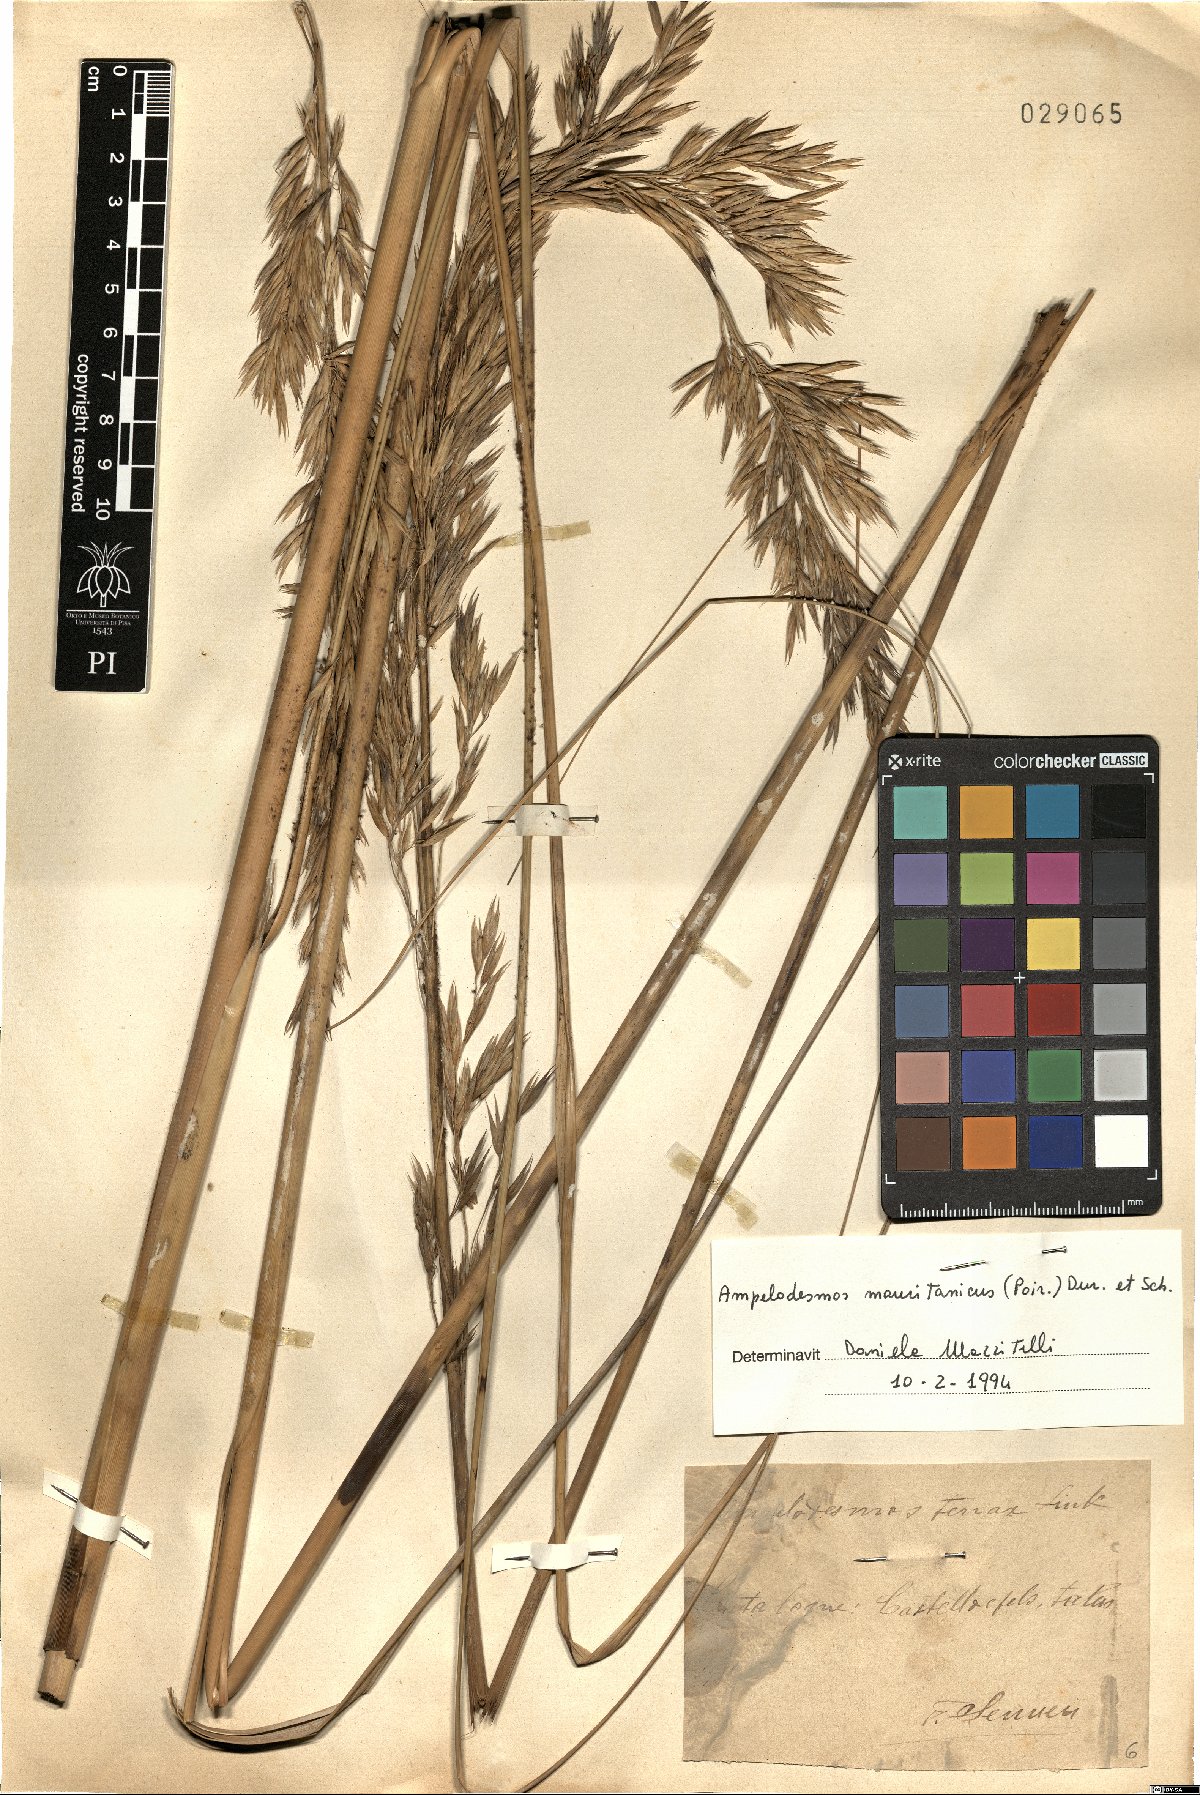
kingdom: Plantae
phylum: Tracheophyta
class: Liliopsida
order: Poales
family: Poaceae
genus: Ampelodesmos
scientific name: Ampelodesmos mauritanicus
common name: Mauritanian grass
